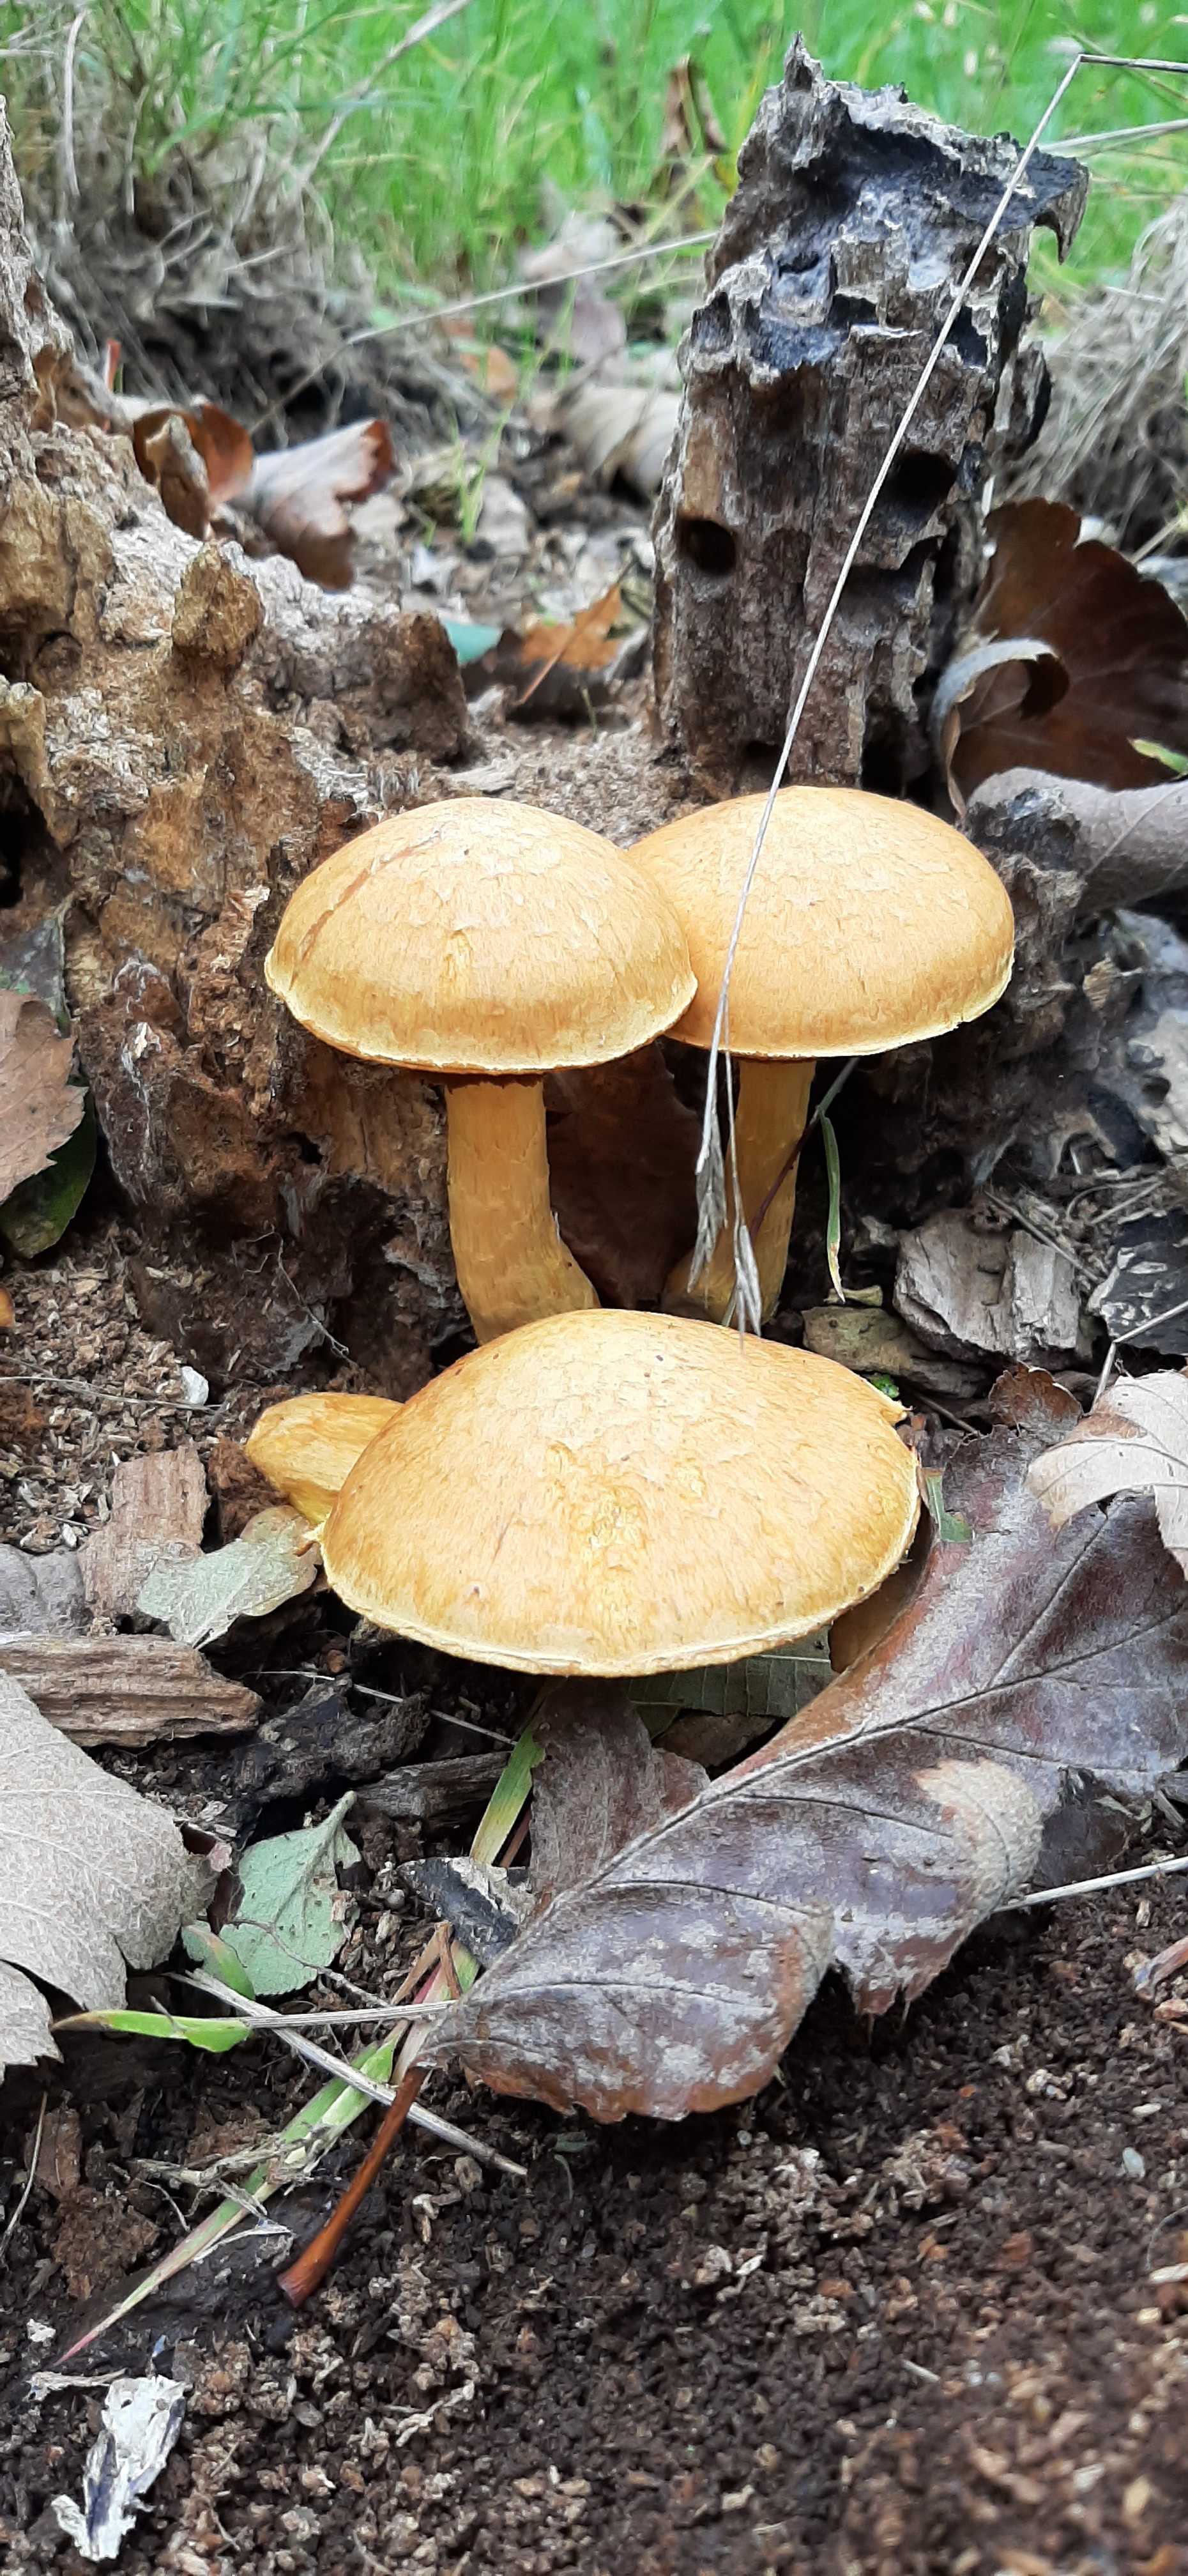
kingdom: Fungi
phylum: Basidiomycota
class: Agaricomycetes
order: Agaricales
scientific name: Agaricales
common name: champignonordenen
